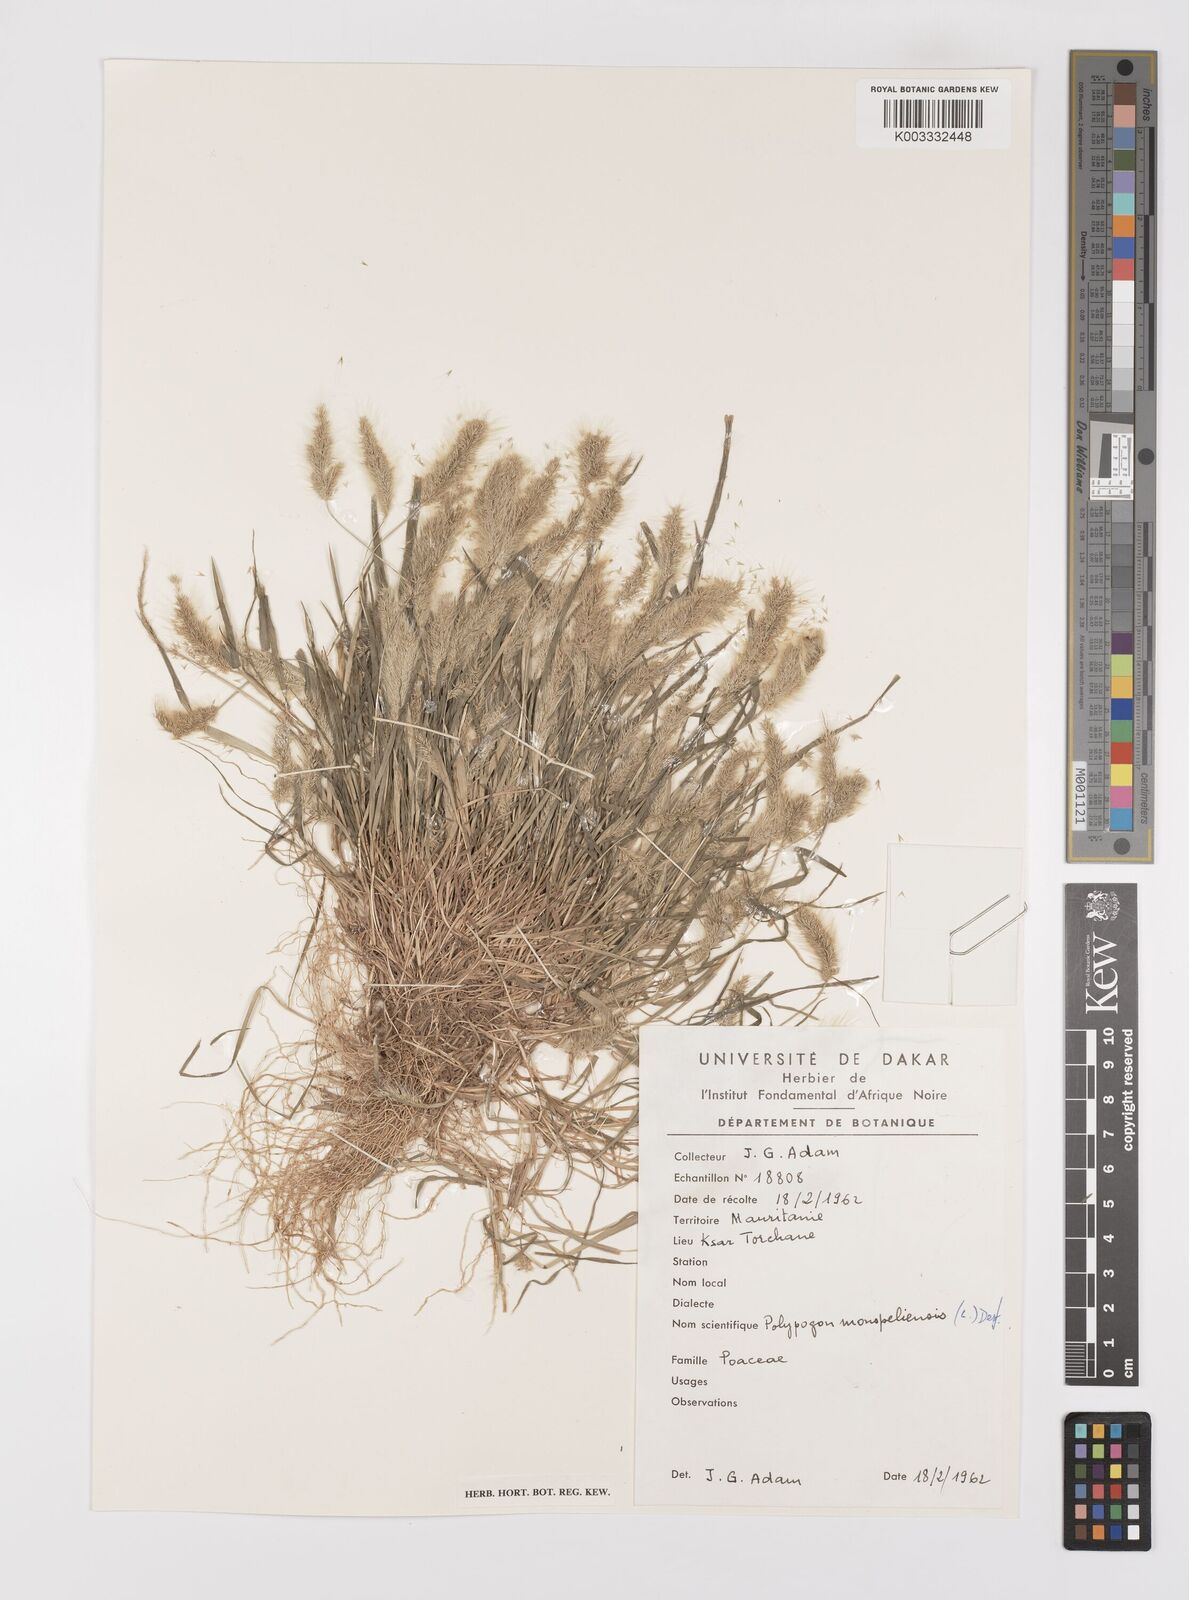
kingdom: Plantae
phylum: Tracheophyta
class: Liliopsida
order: Poales
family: Poaceae
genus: Polypogon
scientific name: Polypogon monspeliensis
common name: Annual rabbitsfoot grass
